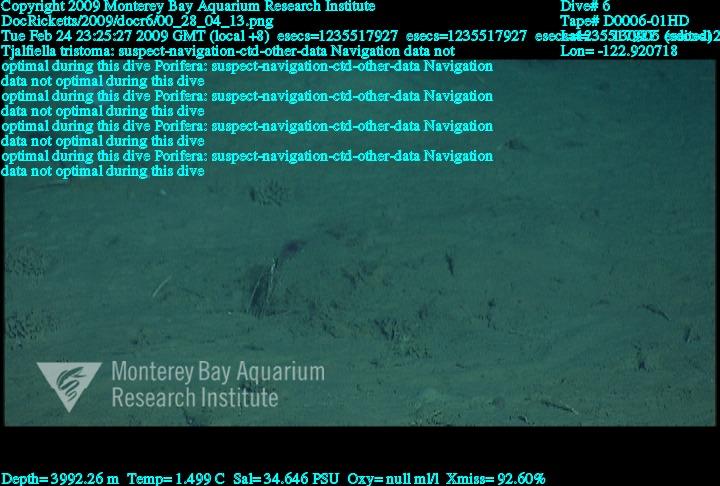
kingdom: Animalia
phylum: Porifera
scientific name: Porifera
